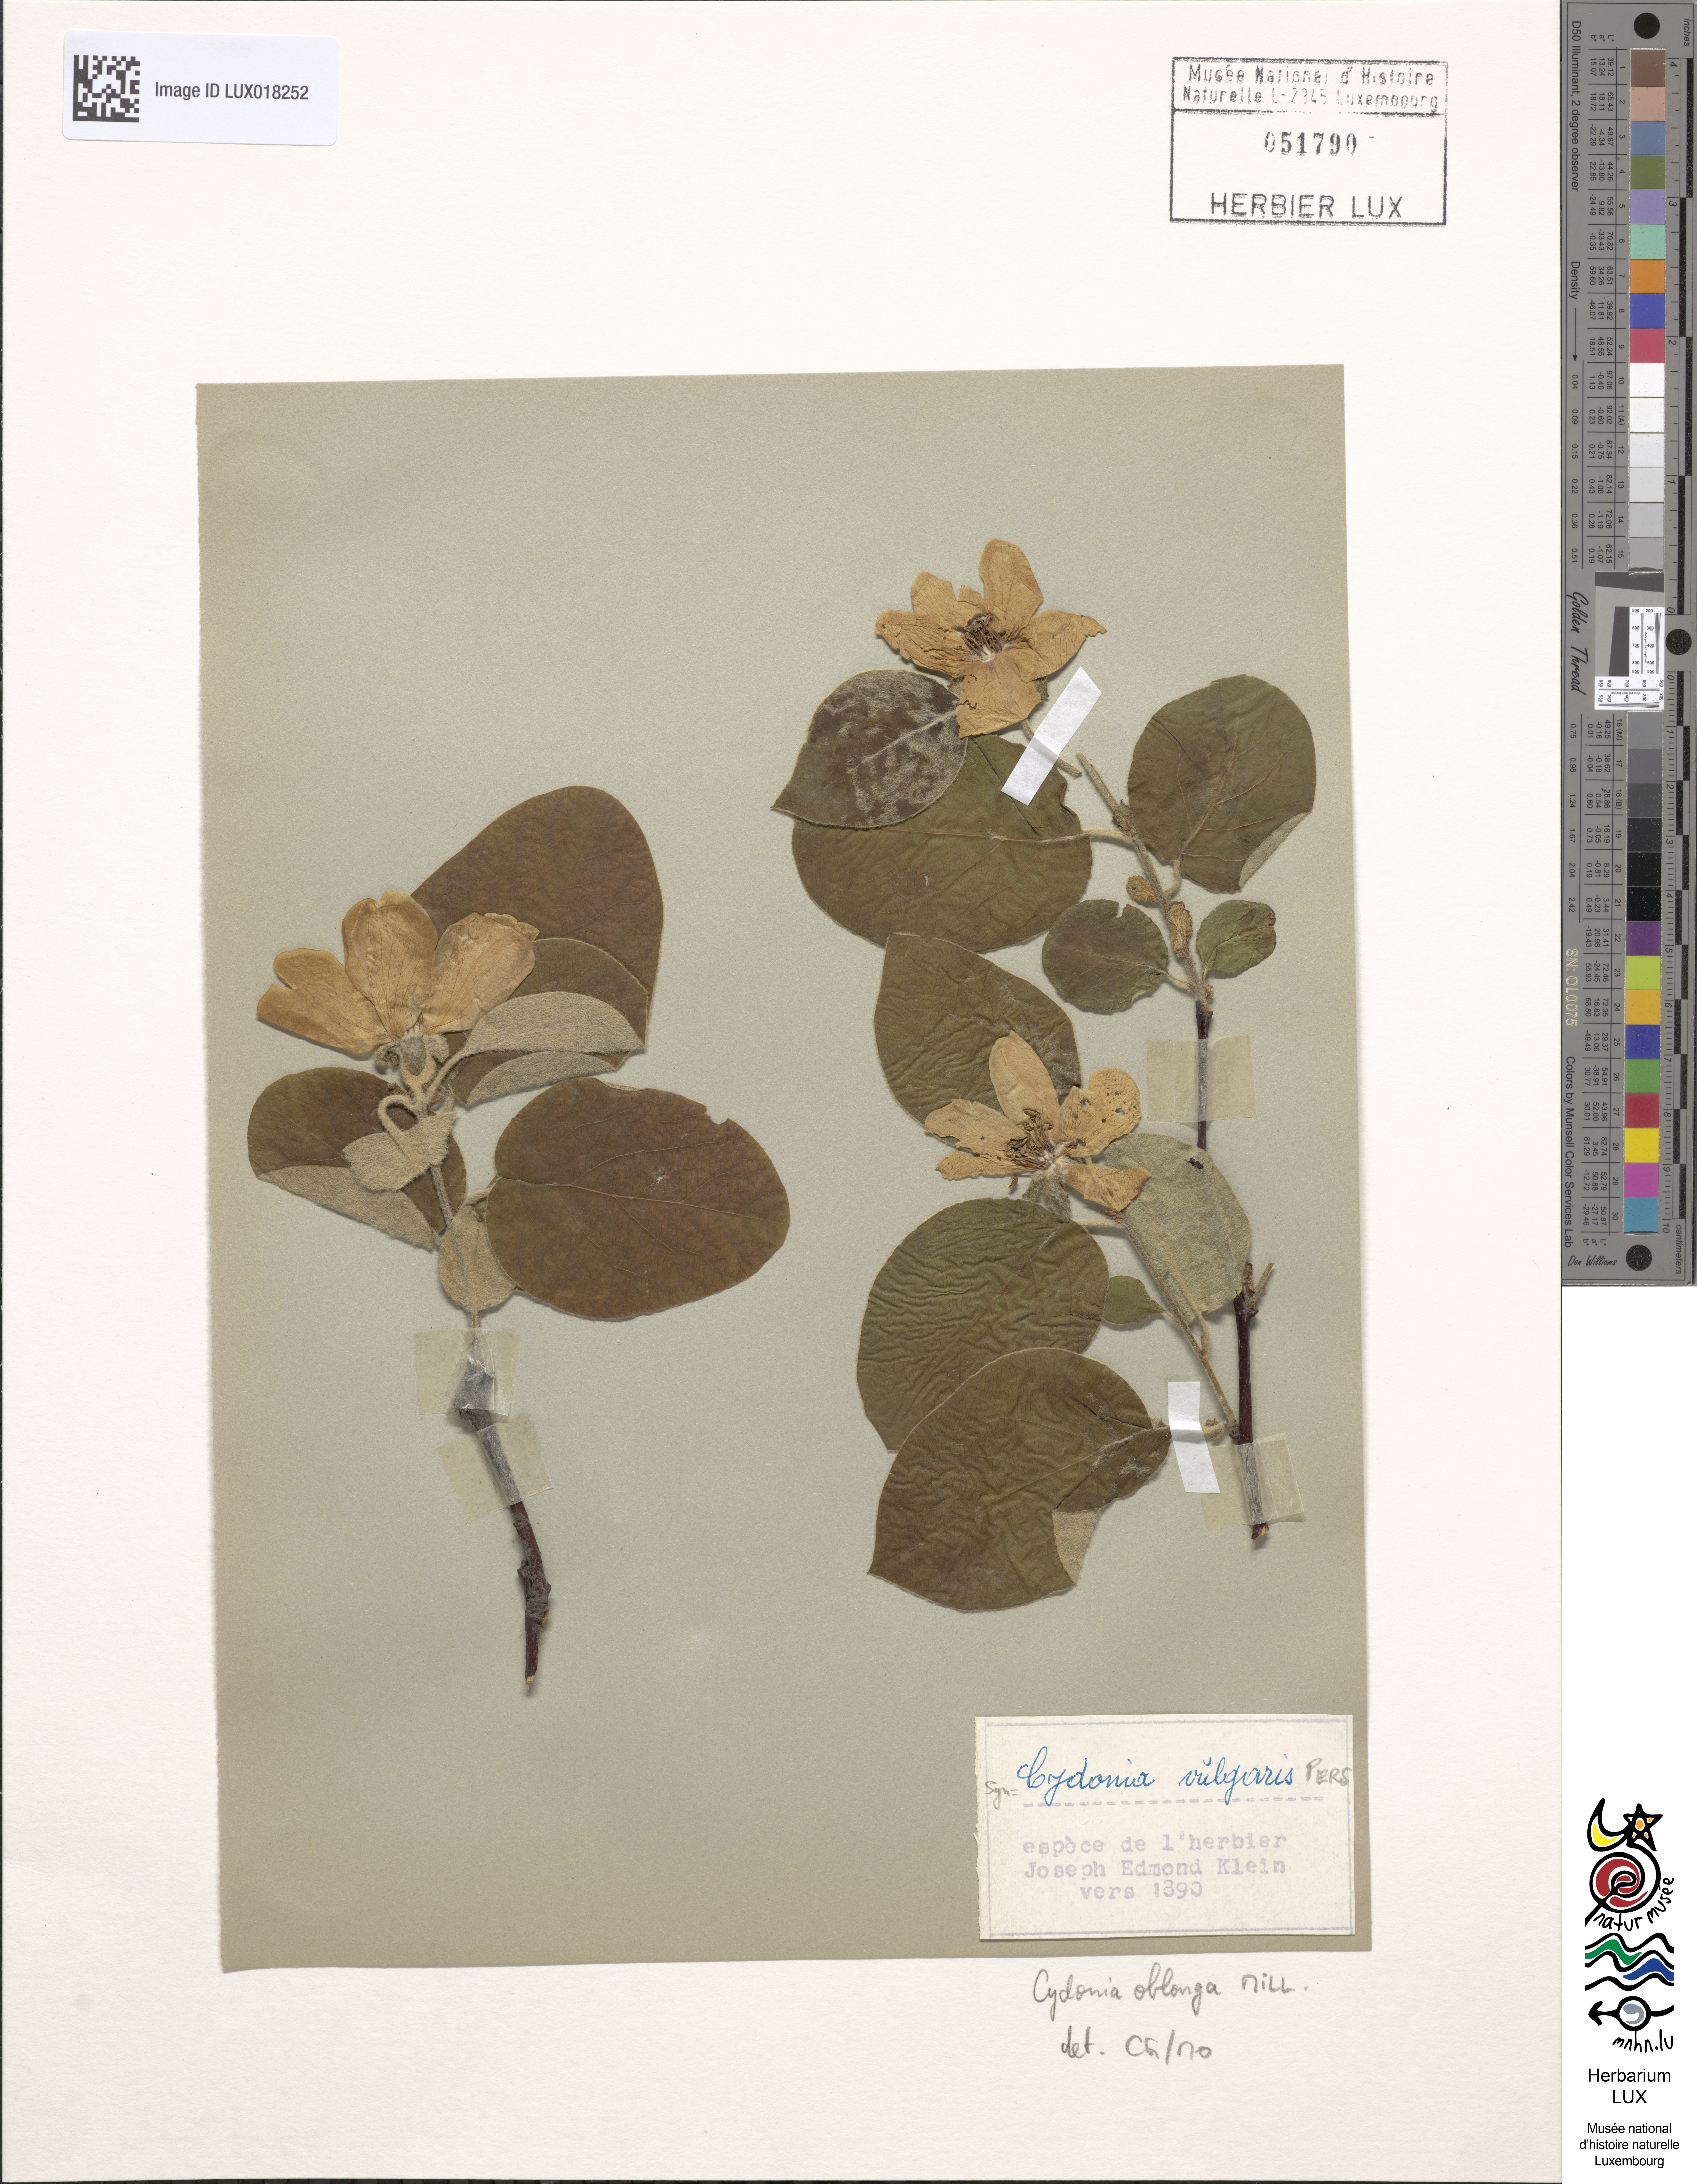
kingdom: Plantae
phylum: Tracheophyta
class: Magnoliopsida
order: Rosales
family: Rosaceae
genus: Cydonia
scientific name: Cydonia oblonga
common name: Quince
